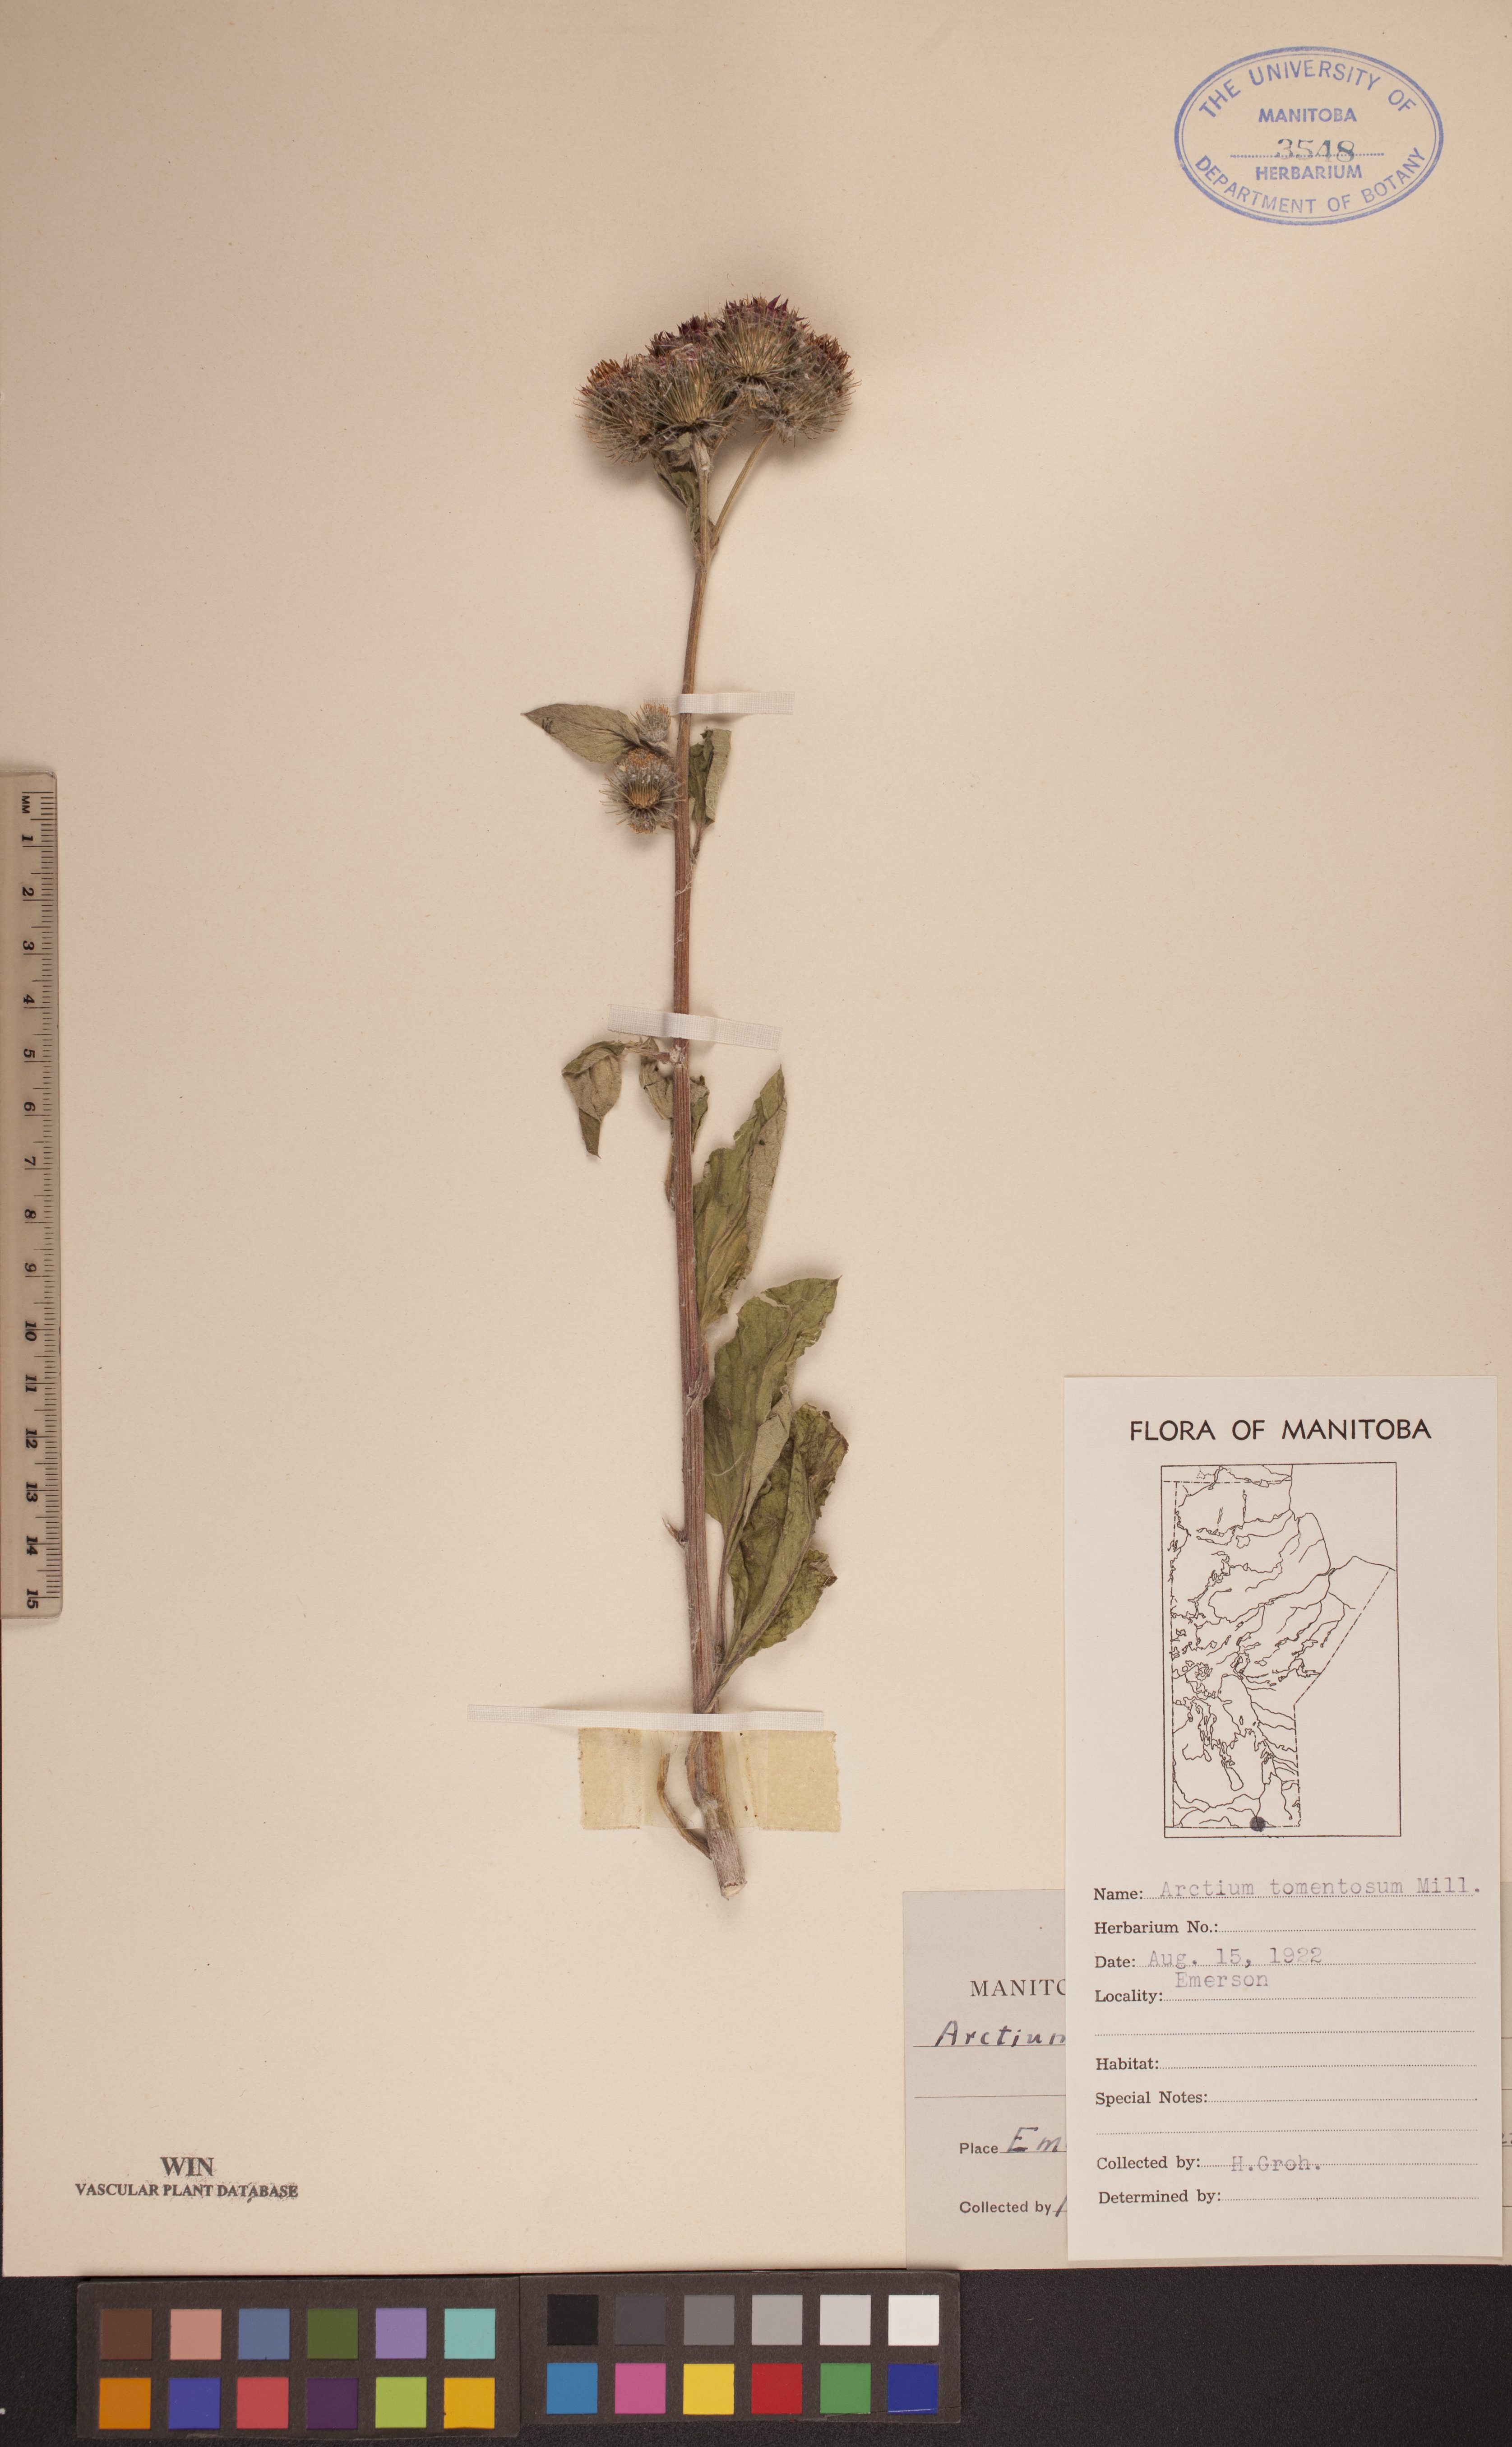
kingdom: Plantae
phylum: Tracheophyta
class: Magnoliopsida
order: Asterales
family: Asteraceae
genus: Arctium
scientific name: Arctium tomentosum
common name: Woolly burdock
